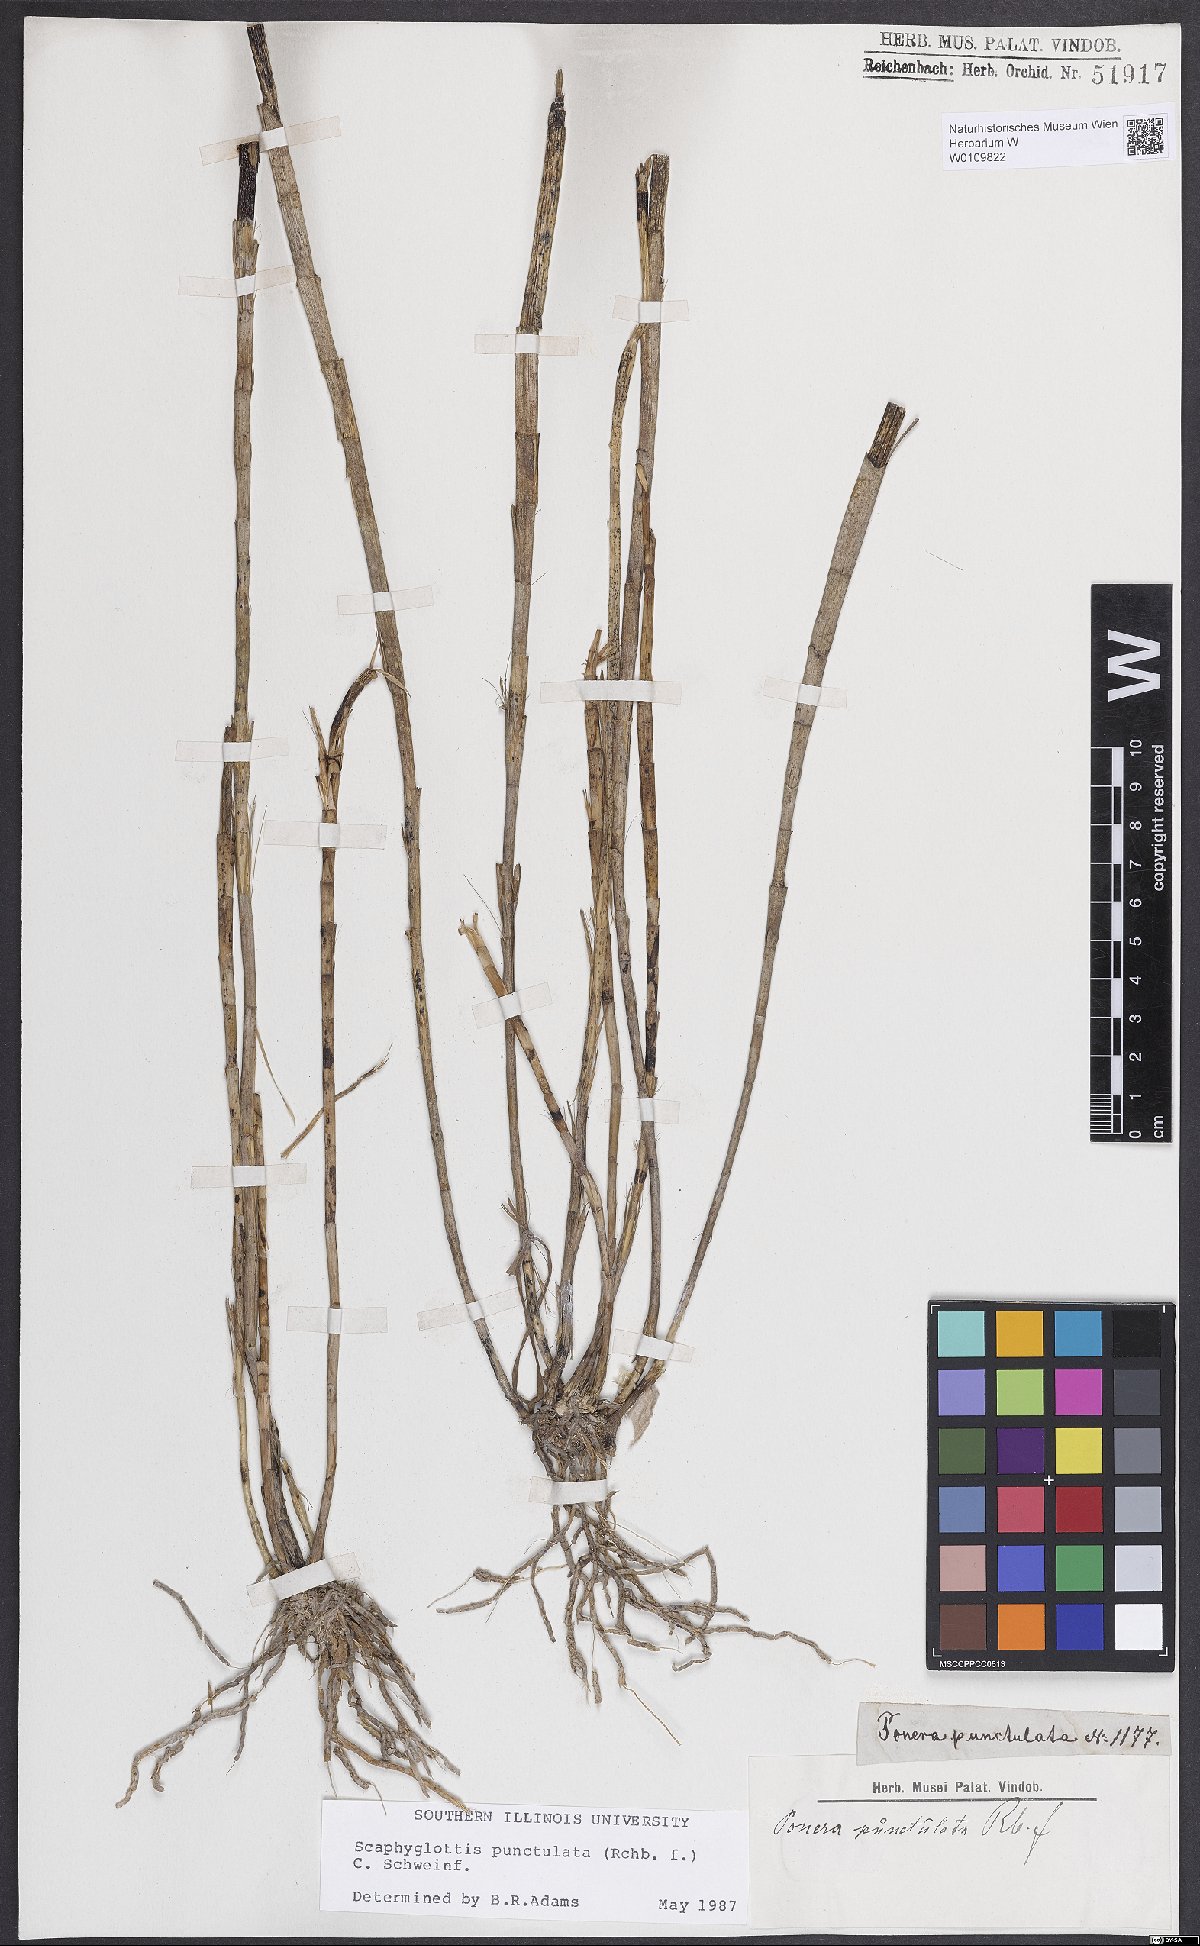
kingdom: Plantae
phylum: Tracheophyta
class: Liliopsida
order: Asparagales
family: Orchidaceae
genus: Scaphyglottis
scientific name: Scaphyglottis punctulata
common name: Dotted orchid
